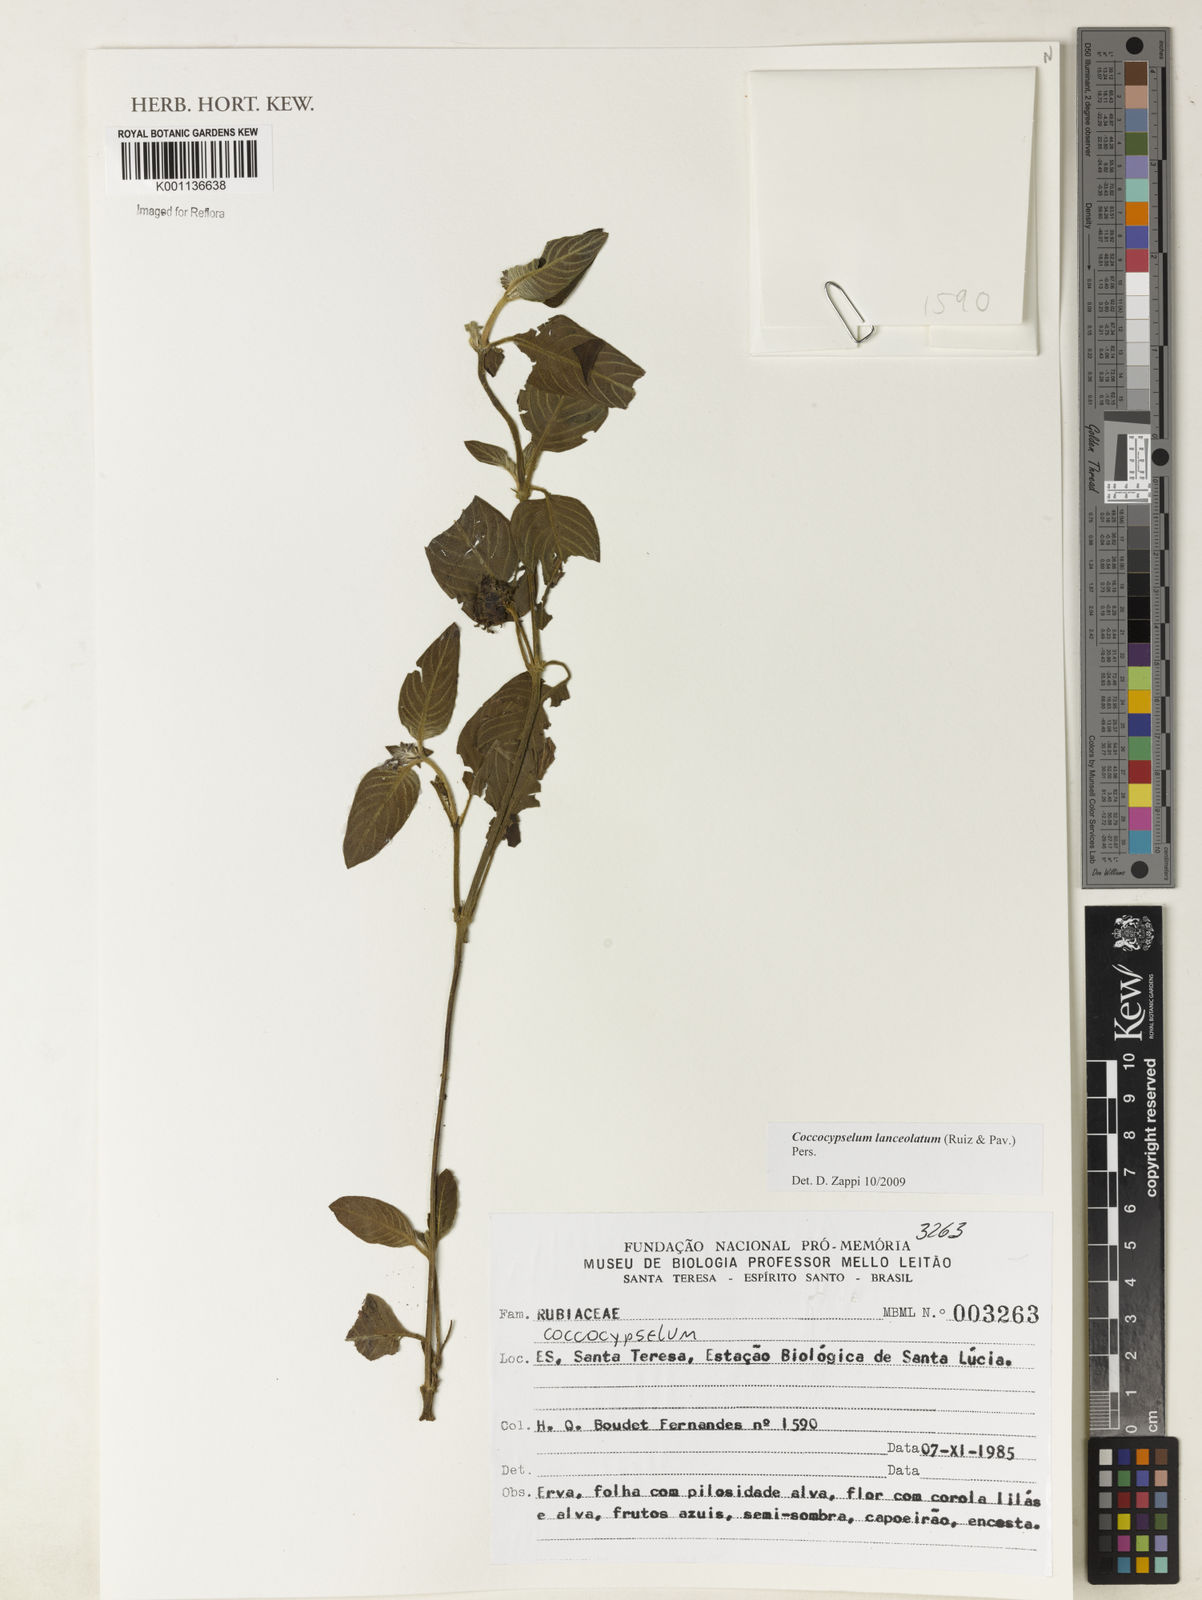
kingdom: Plantae
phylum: Tracheophyta
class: Magnoliopsida
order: Gentianales
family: Rubiaceae
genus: Coccocypselum
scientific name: Coccocypselum lanceolatum
